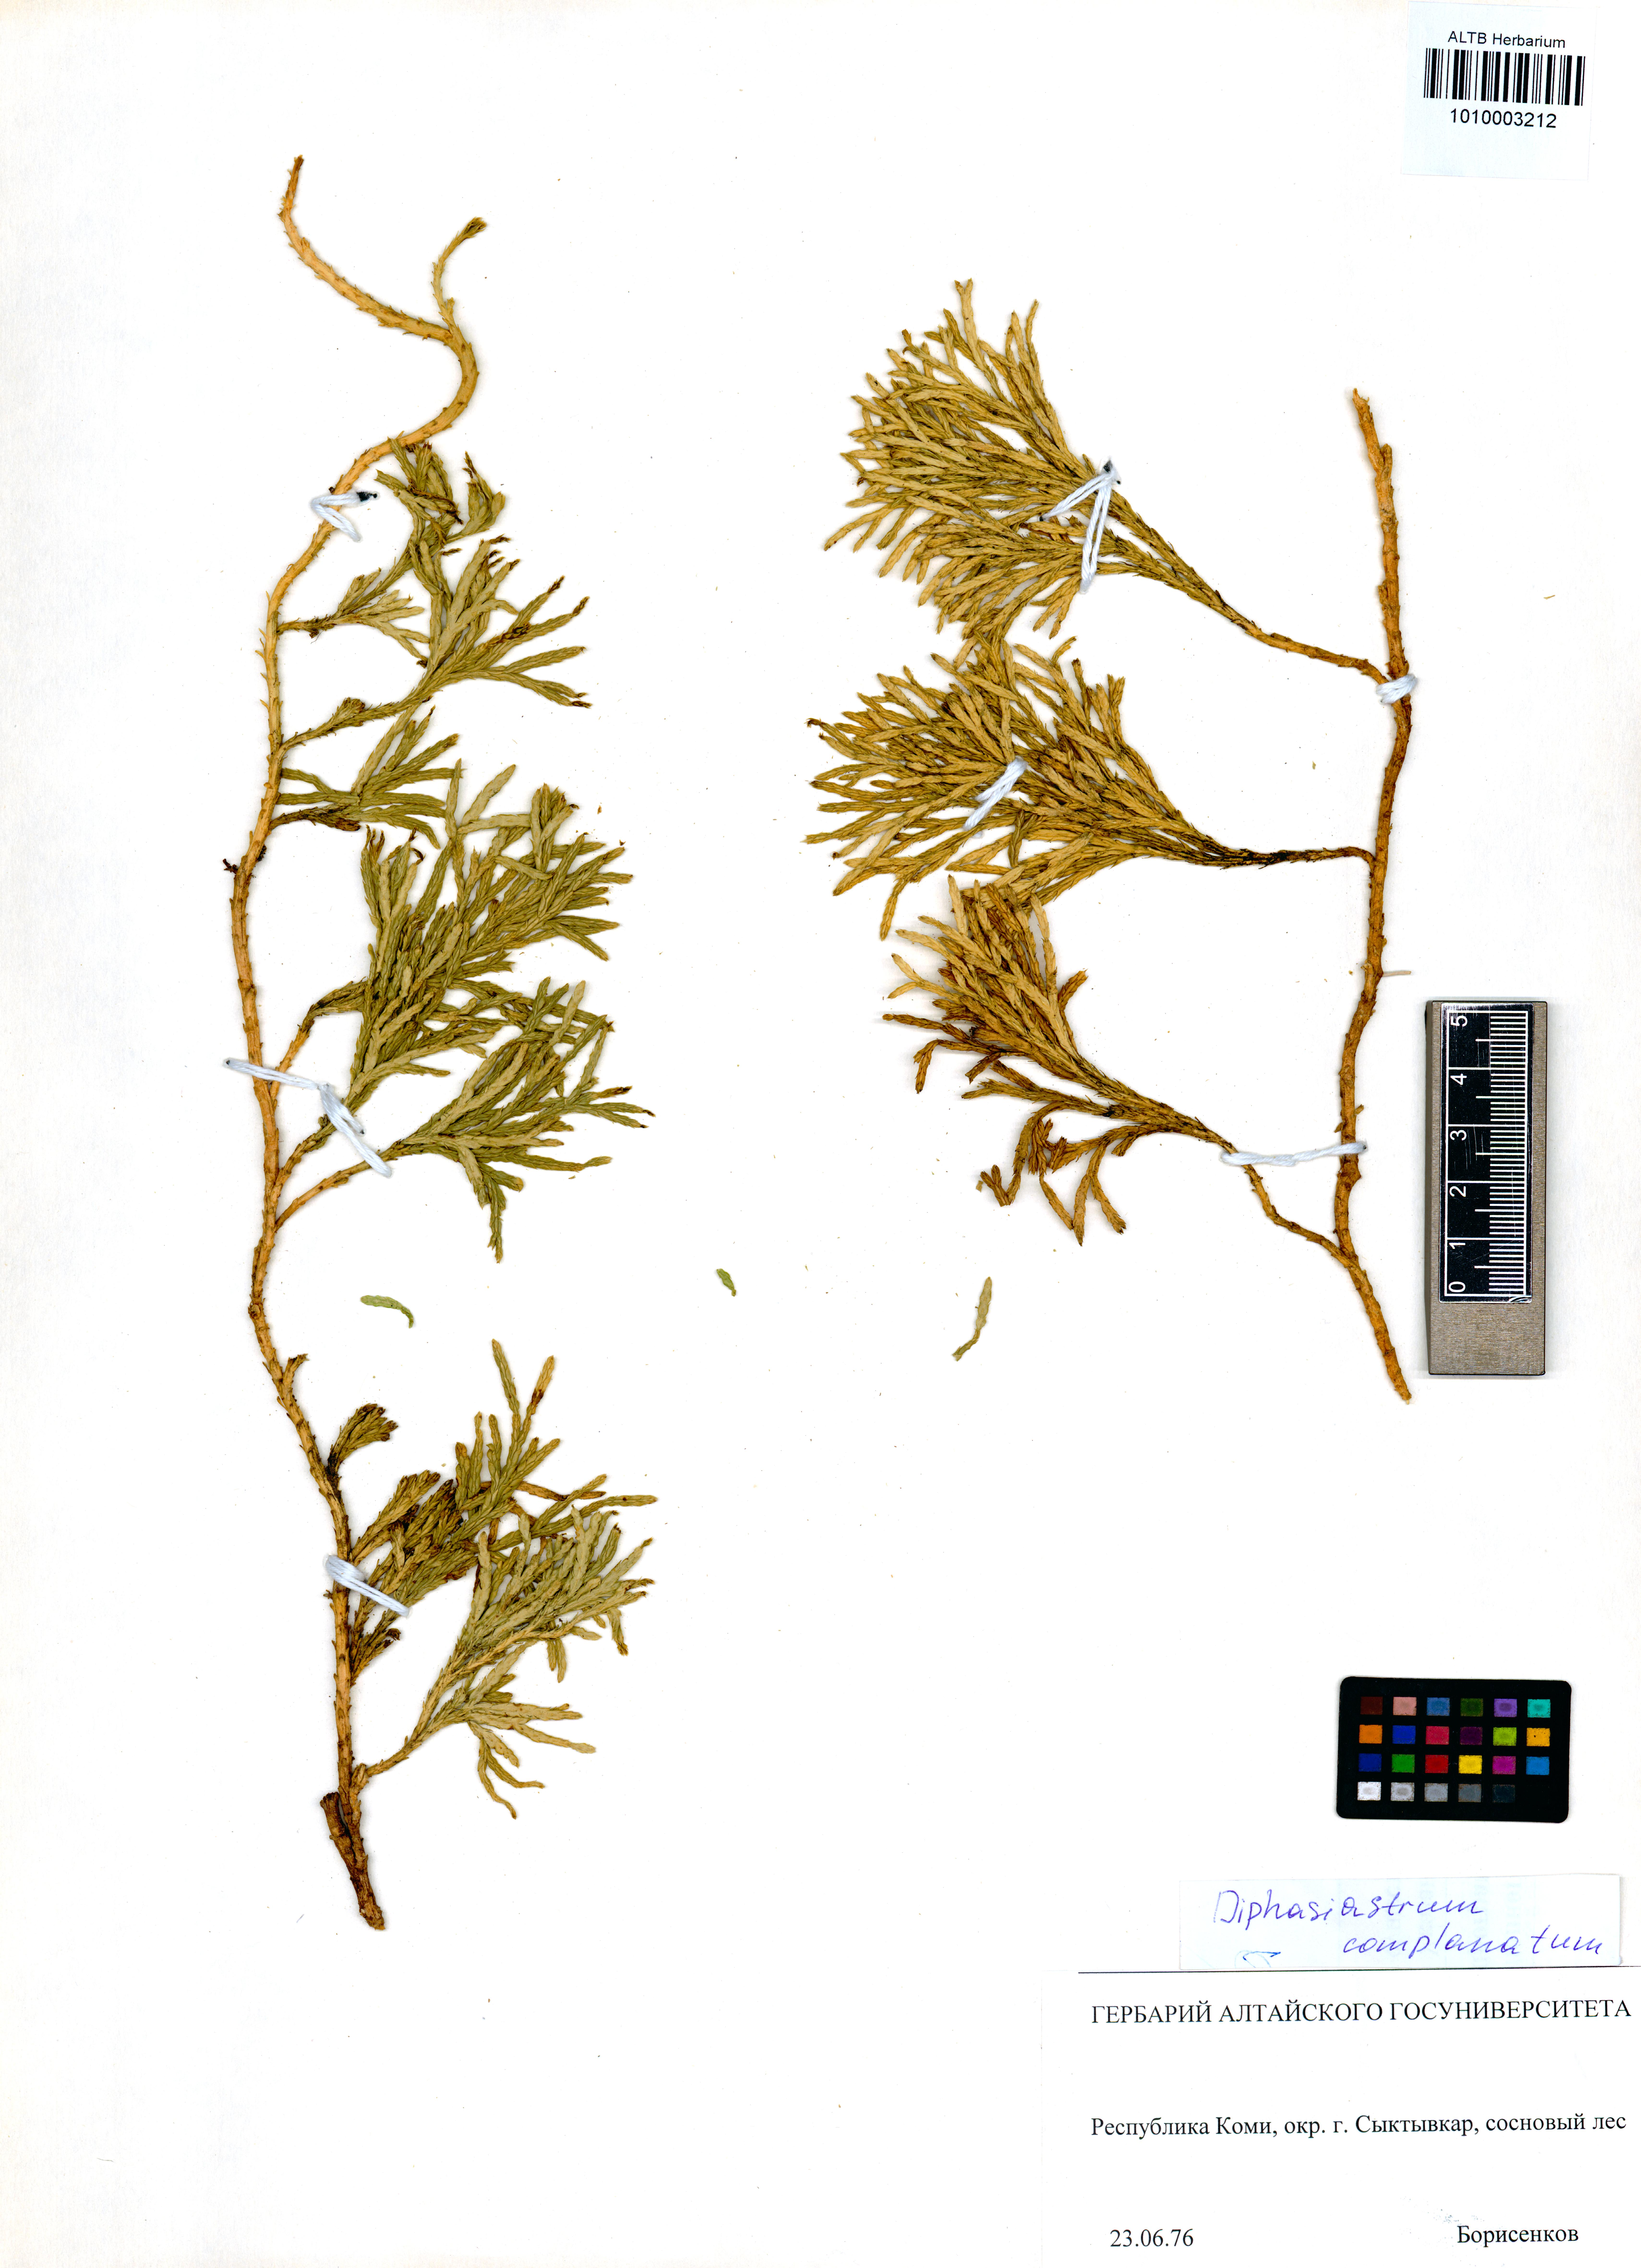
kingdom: Plantae
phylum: Tracheophyta
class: Lycopodiopsida
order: Lycopodiales
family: Lycopodiaceae
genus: Diphasiastrum
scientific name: Diphasiastrum complanatum
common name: Northern running-pine
